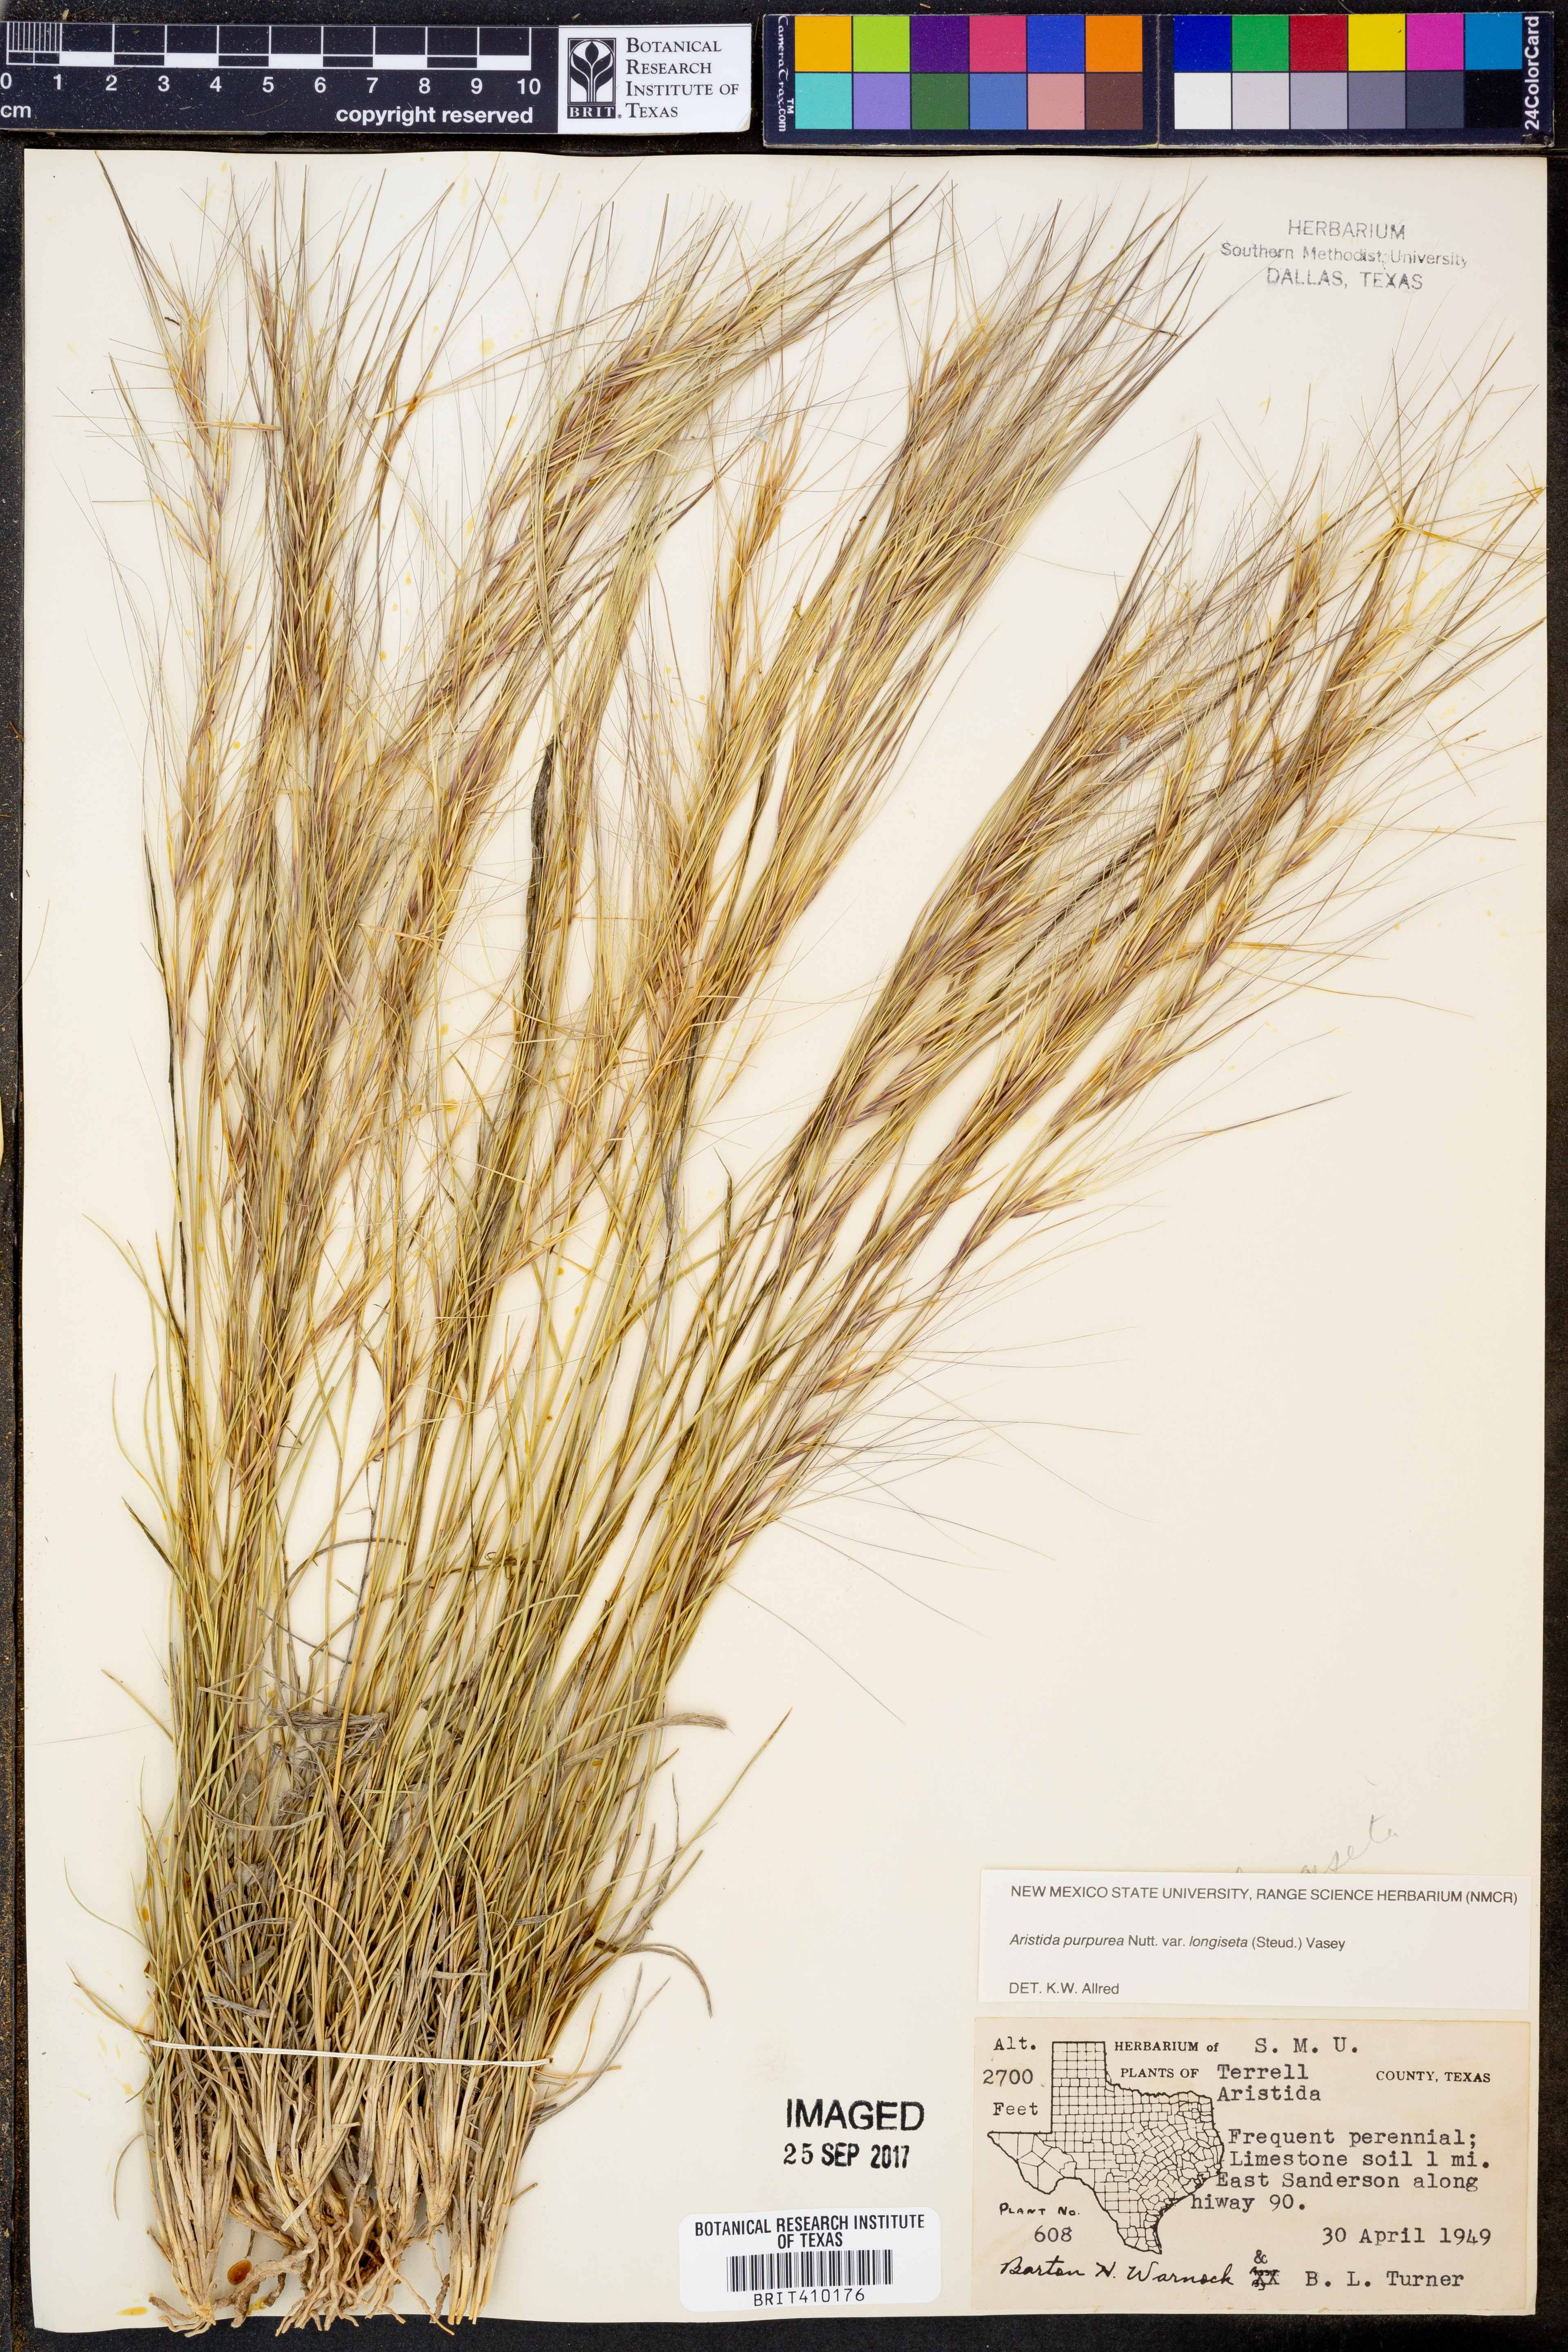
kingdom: Plantae
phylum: Tracheophyta
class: Liliopsida
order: Poales
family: Poaceae
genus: Aristida
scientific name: Aristida longiseta
